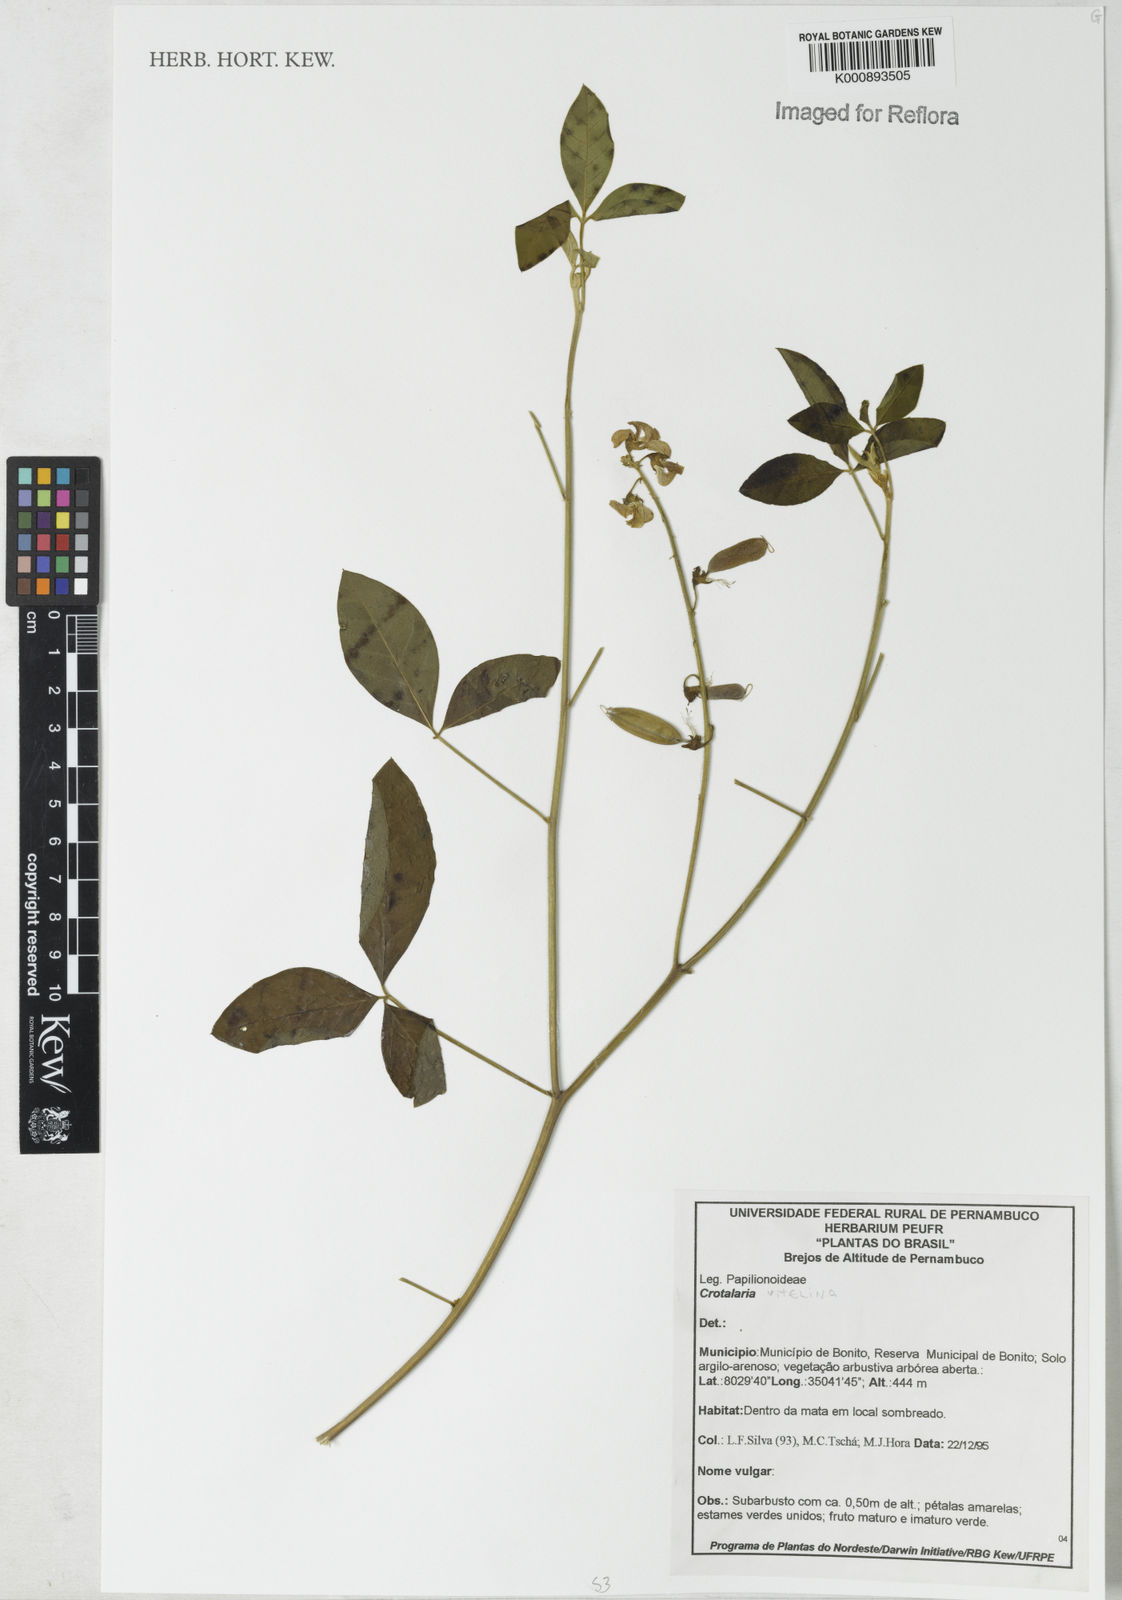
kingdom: Plantae
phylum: Tracheophyta
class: Magnoliopsida
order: Fabales
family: Fabaceae
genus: Crotalaria
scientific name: Crotalaria vitellina
